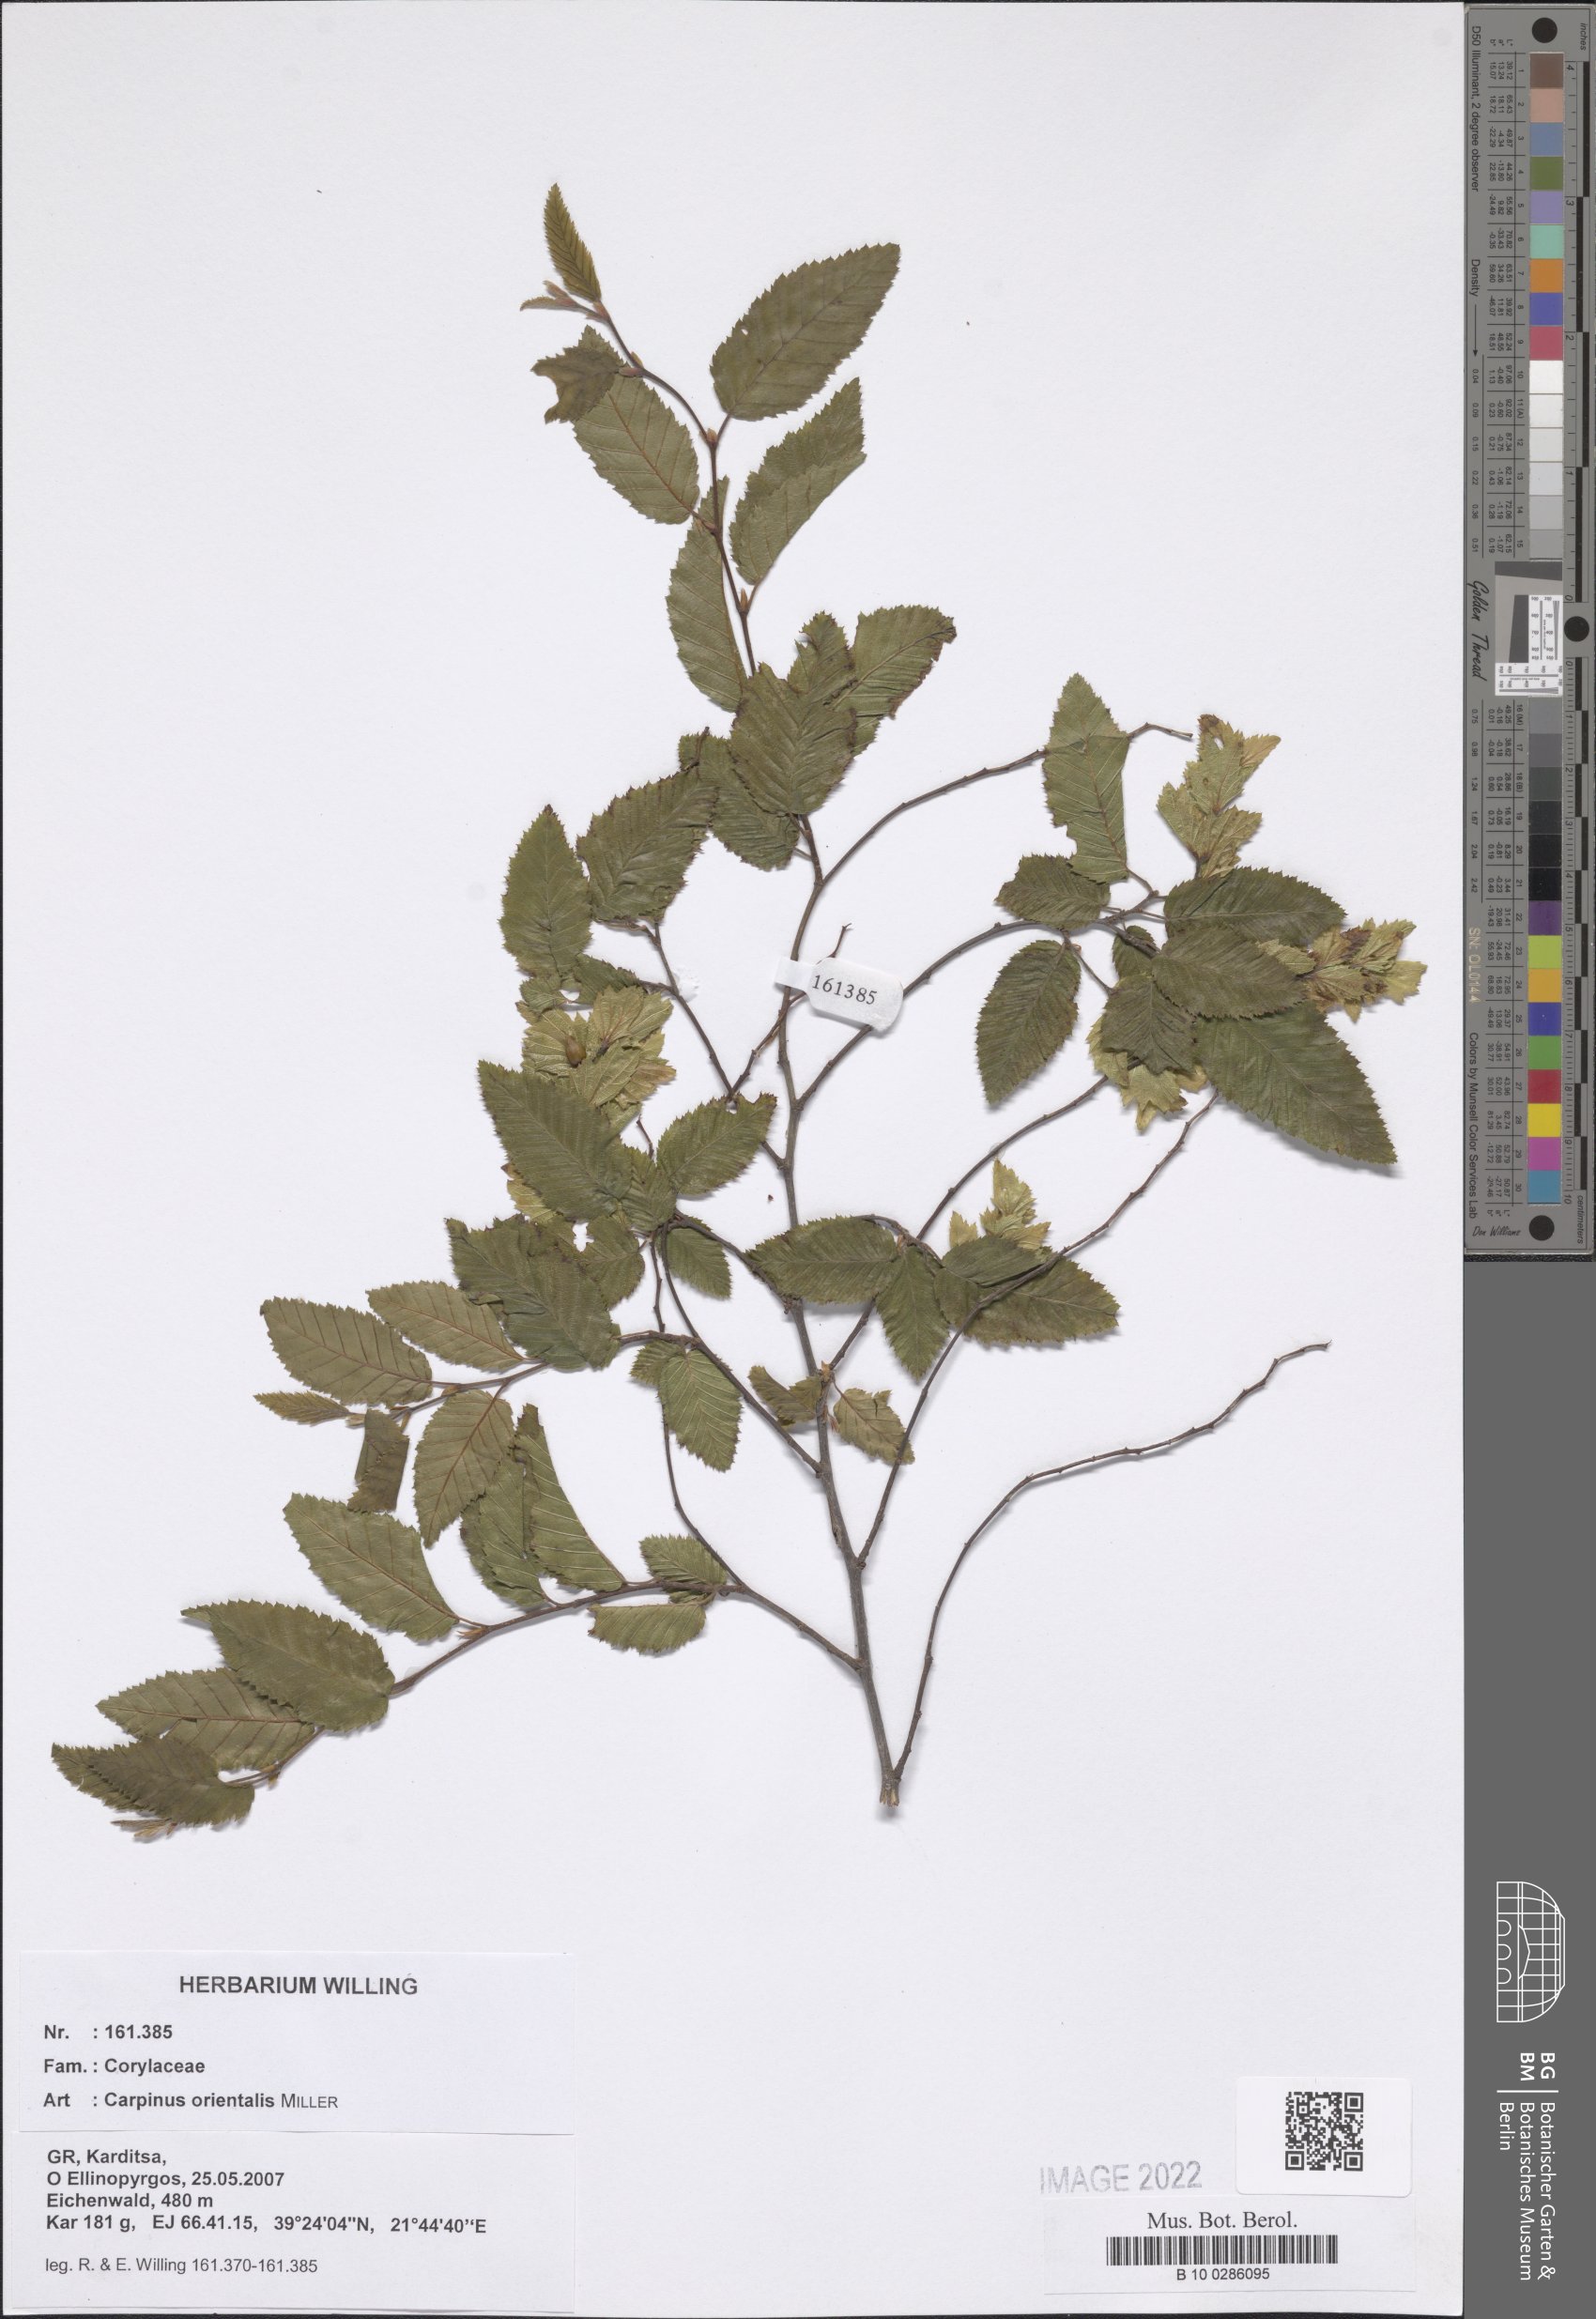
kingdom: Plantae
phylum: Tracheophyta
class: Magnoliopsida
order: Fagales
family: Betulaceae
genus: Carpinus
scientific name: Carpinus orientalis
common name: Eastern hornbeam
